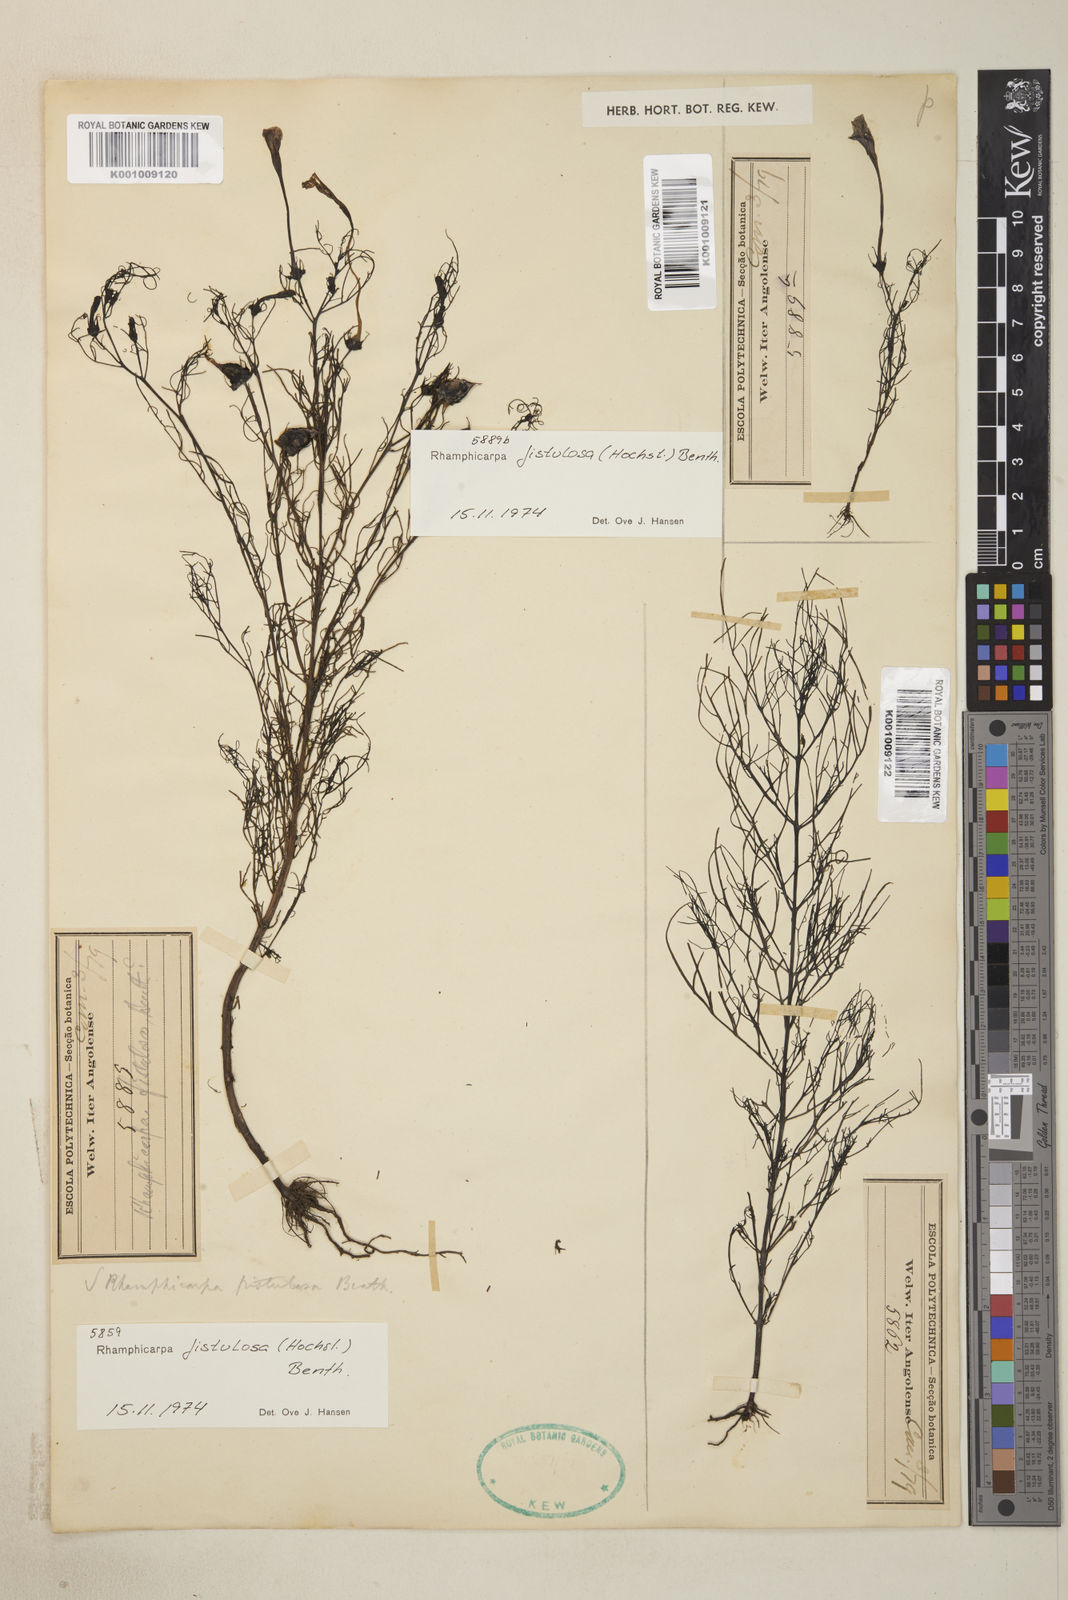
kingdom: Plantae
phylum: Tracheophyta
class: Magnoliopsida
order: Lamiales
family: Orobanchaceae
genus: Rhamphicarpa
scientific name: Rhamphicarpa fistulosa
